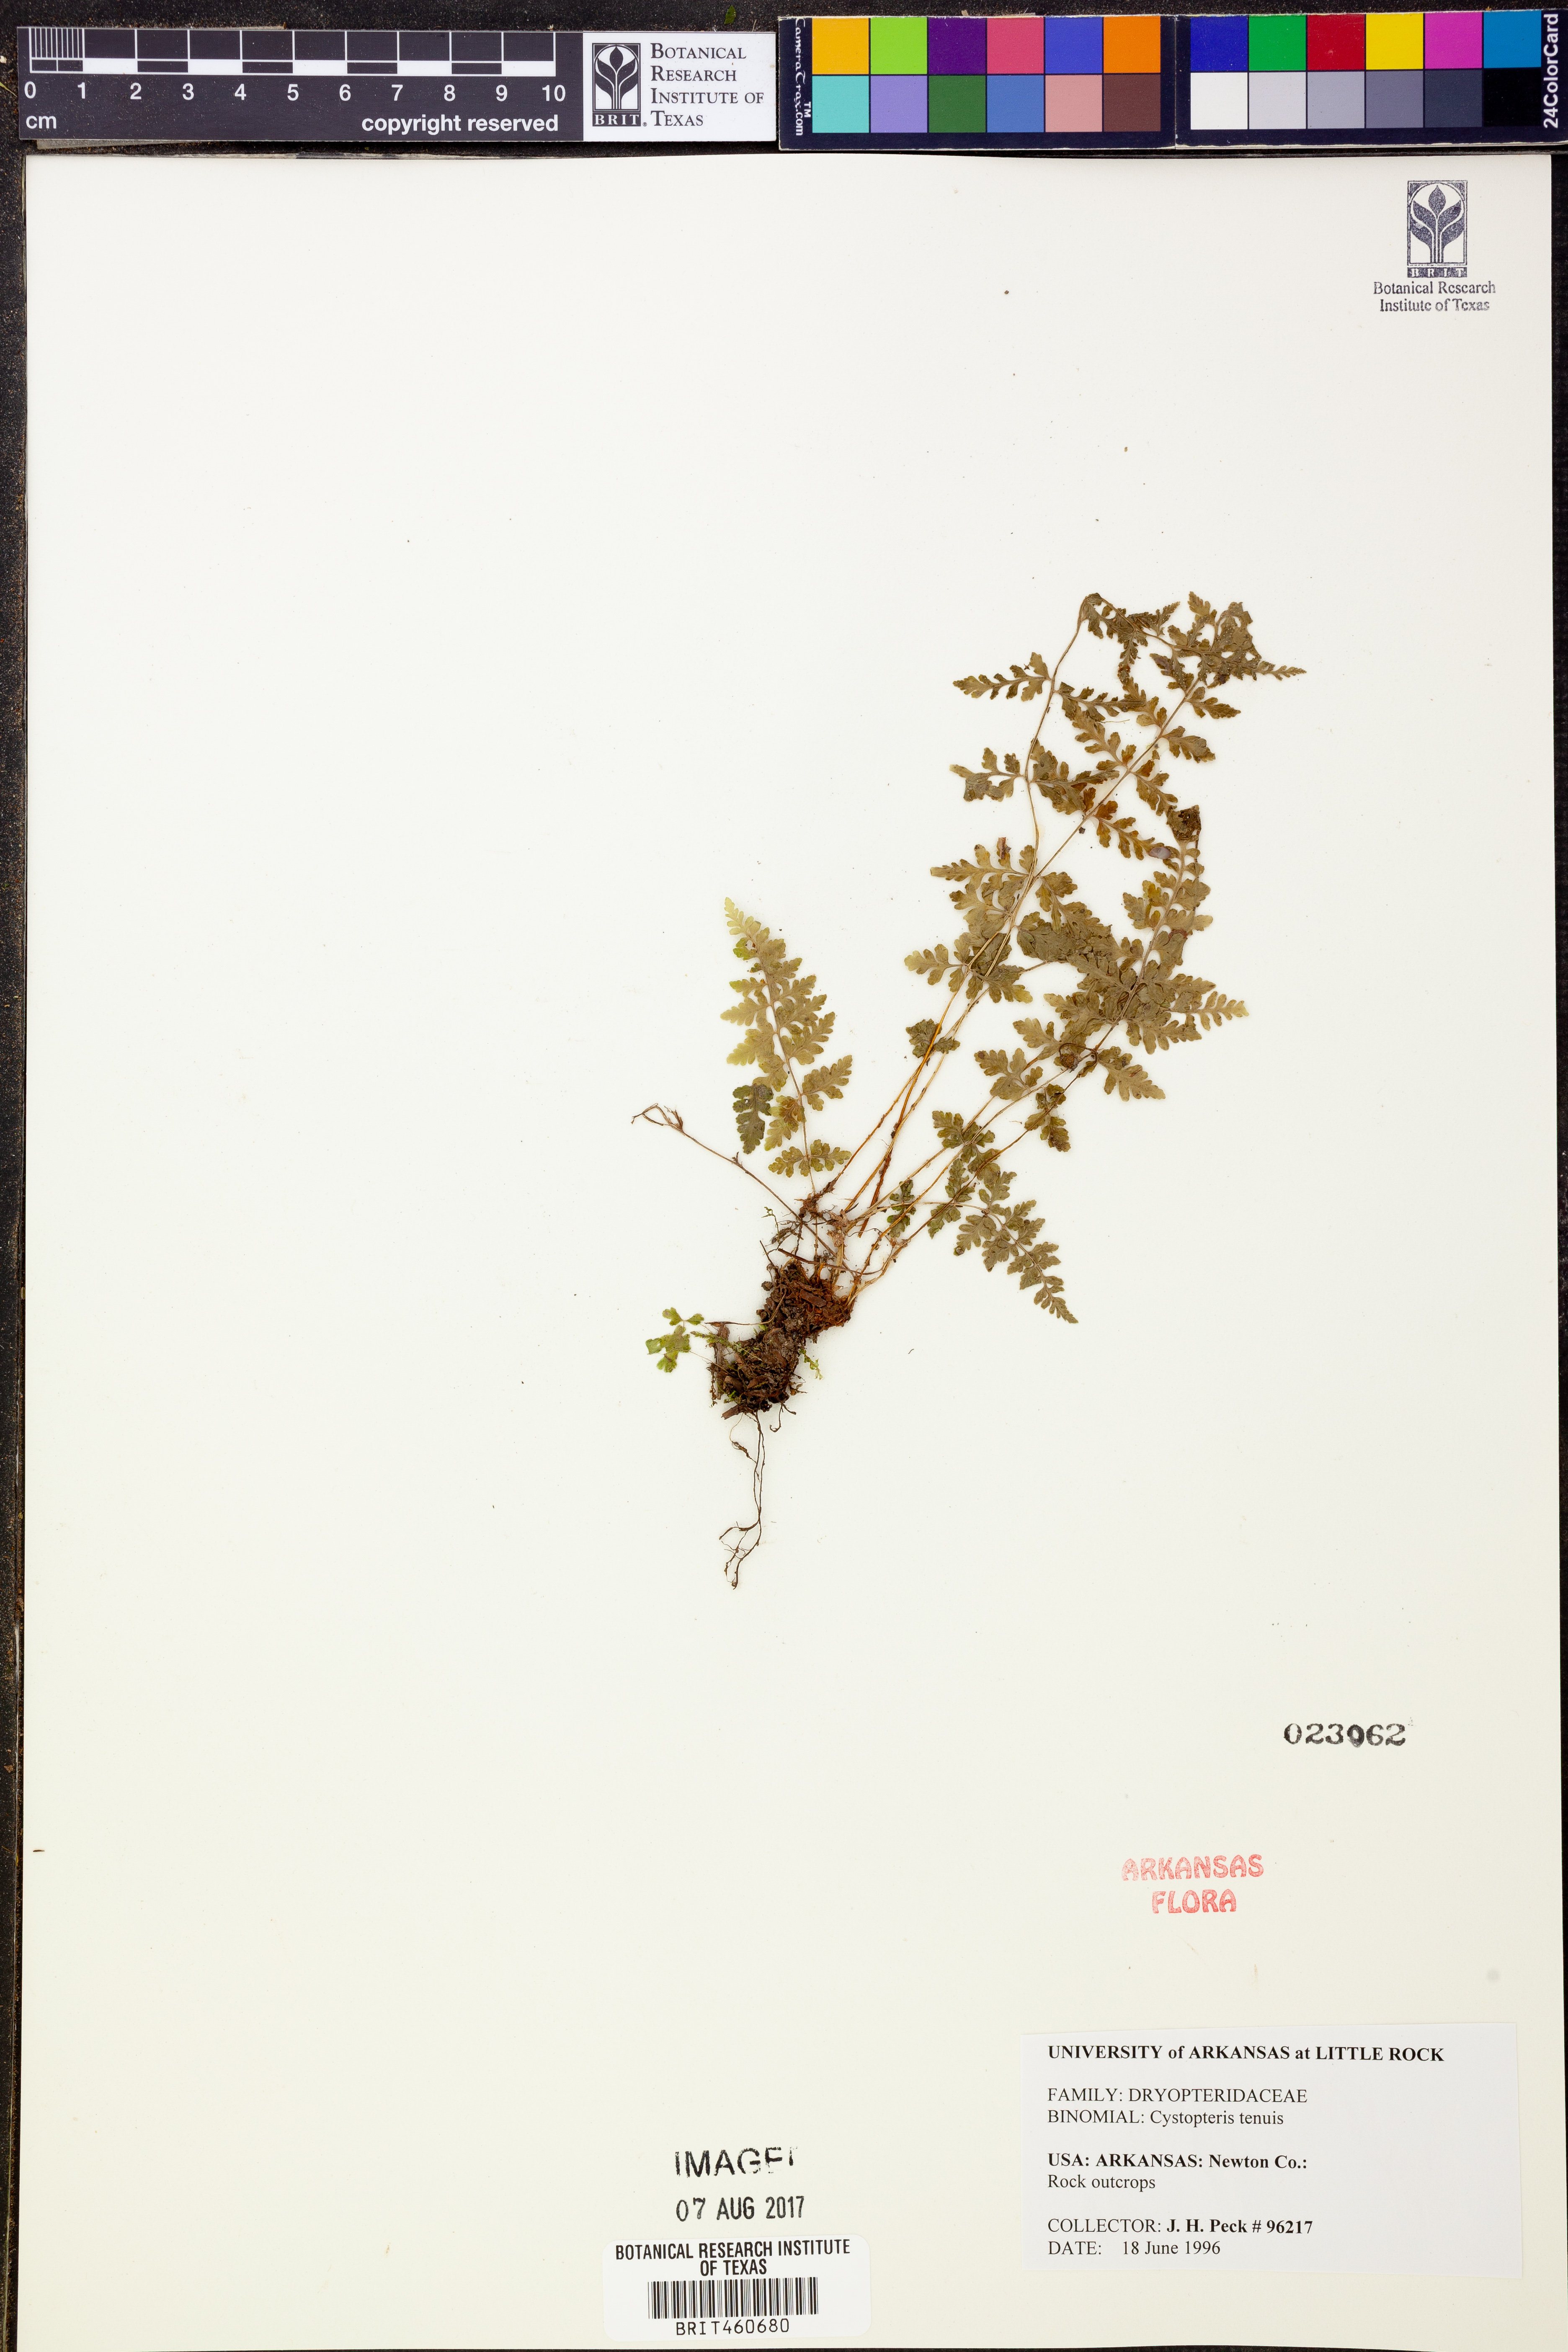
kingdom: Plantae
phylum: Tracheophyta
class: Polypodiopsida
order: Polypodiales
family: Cystopteridaceae
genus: Cystopteris
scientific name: Cystopteris tenuis
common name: Mackay's brittle fern
